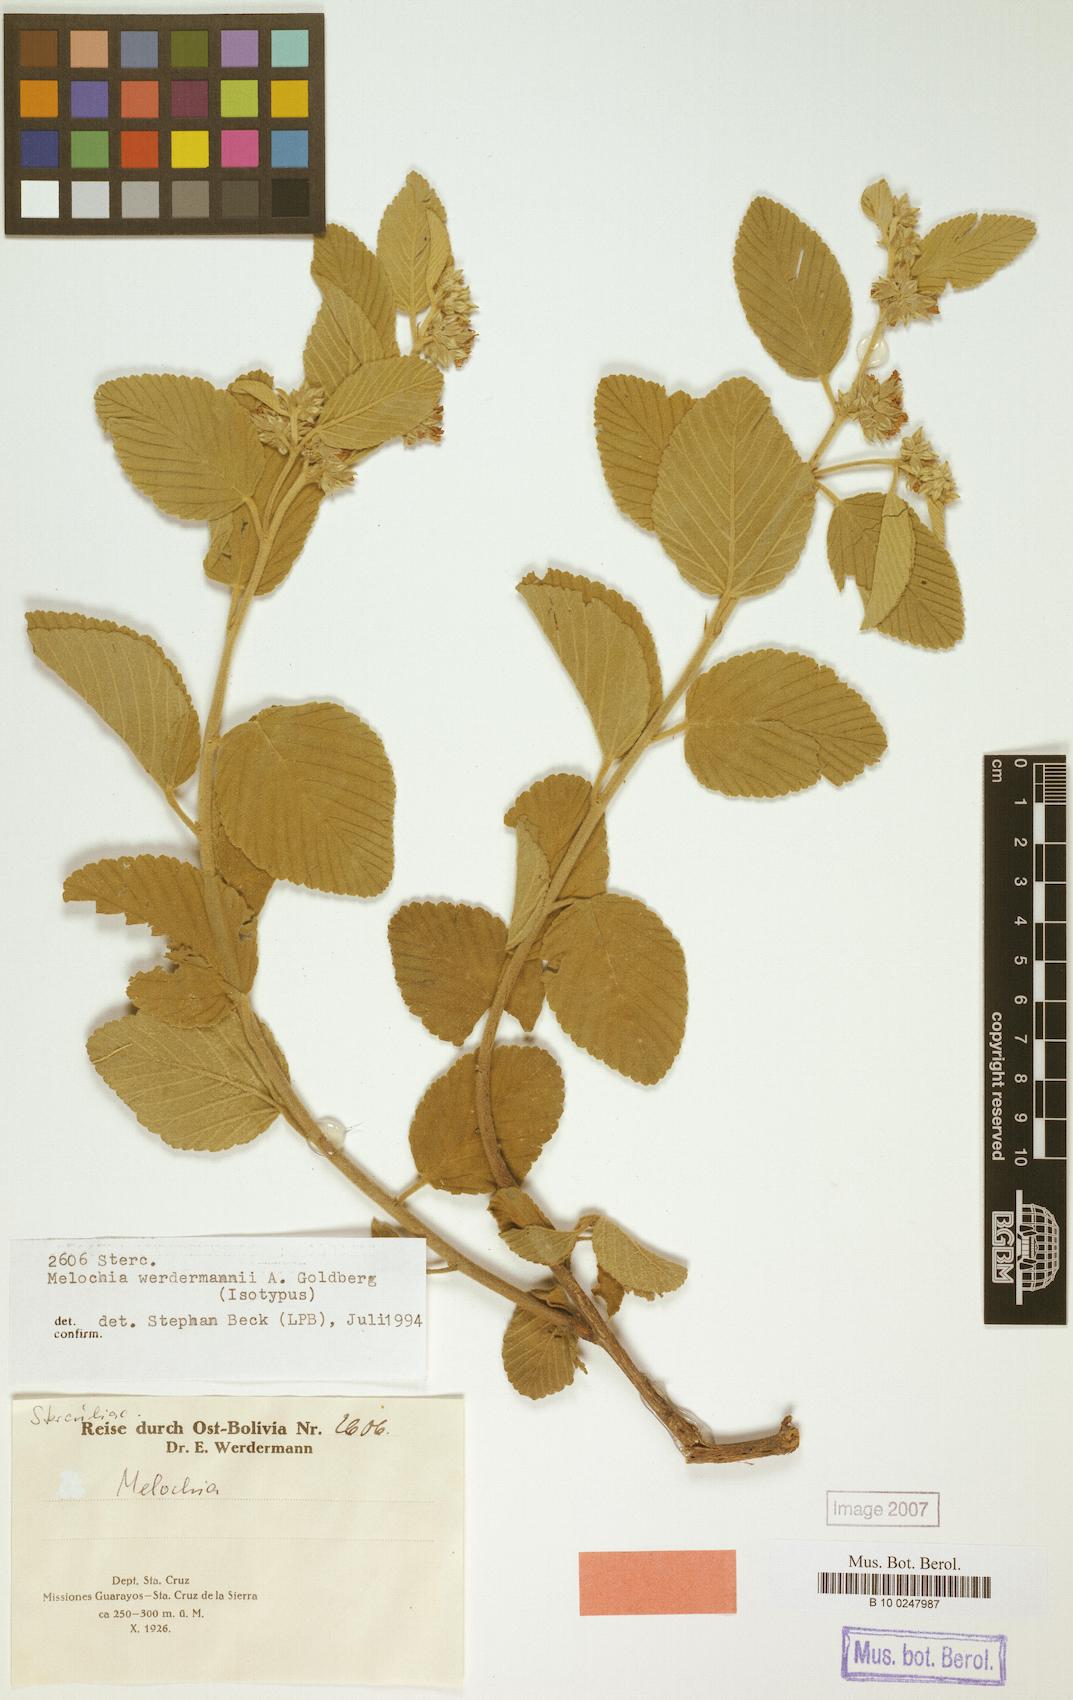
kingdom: Plantae
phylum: Tracheophyta
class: Magnoliopsida
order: Malvales
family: Malvaceae
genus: Melochia
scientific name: Melochia werdermannii
